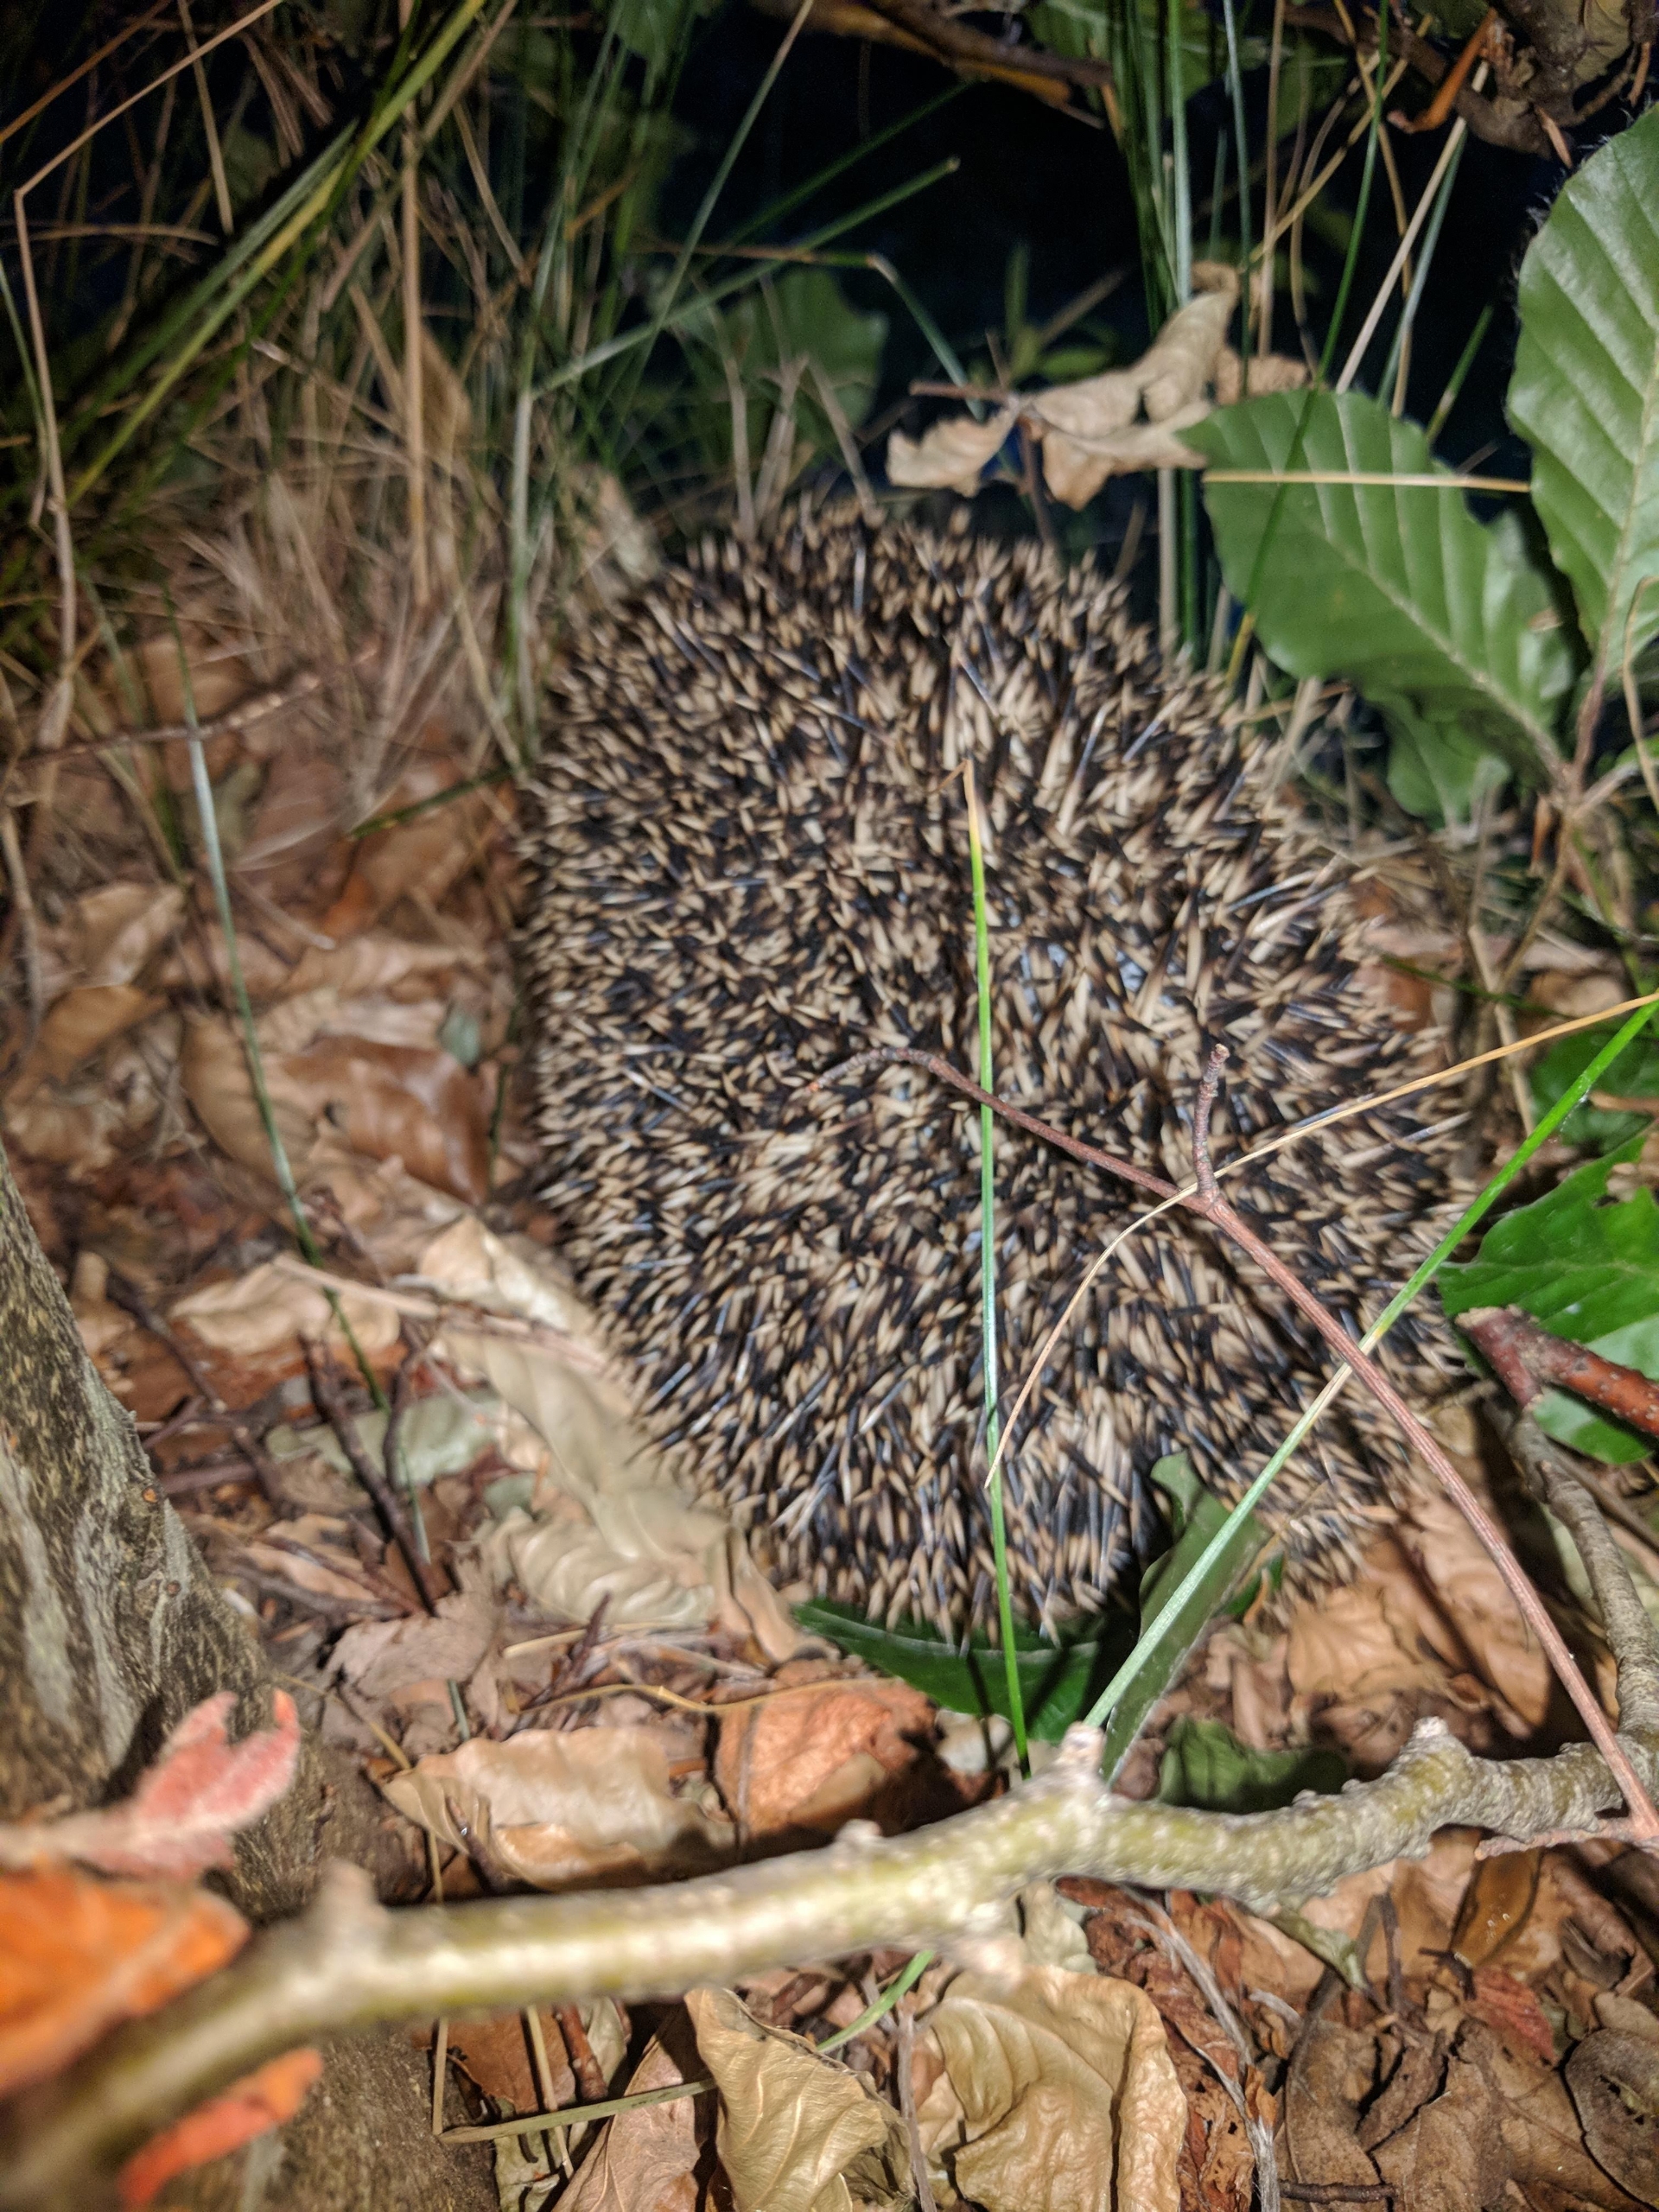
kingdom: Animalia
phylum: Chordata
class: Mammalia
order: Erinaceomorpha
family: Erinaceidae
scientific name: Erinaceidae
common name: Pindsvin
